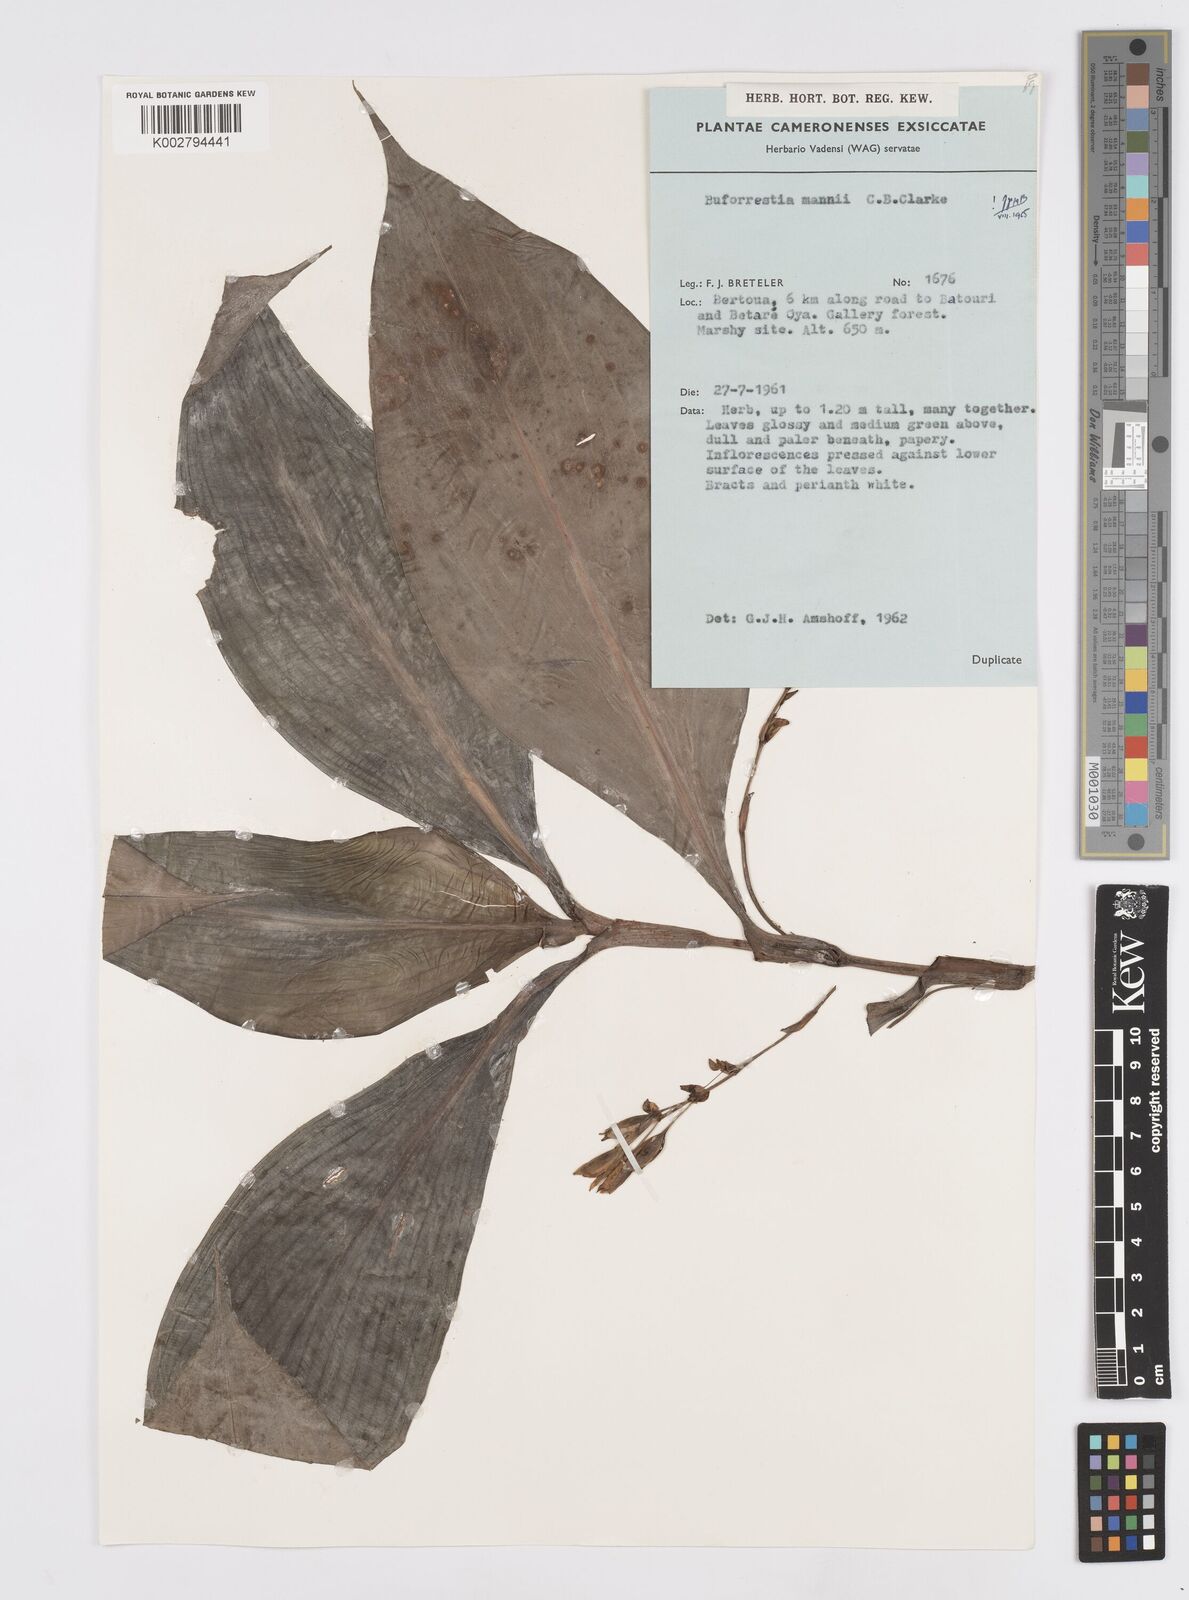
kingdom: Plantae
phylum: Tracheophyta
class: Liliopsida
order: Commelinales
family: Commelinaceae
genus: Buforrestia
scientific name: Buforrestia mannii
